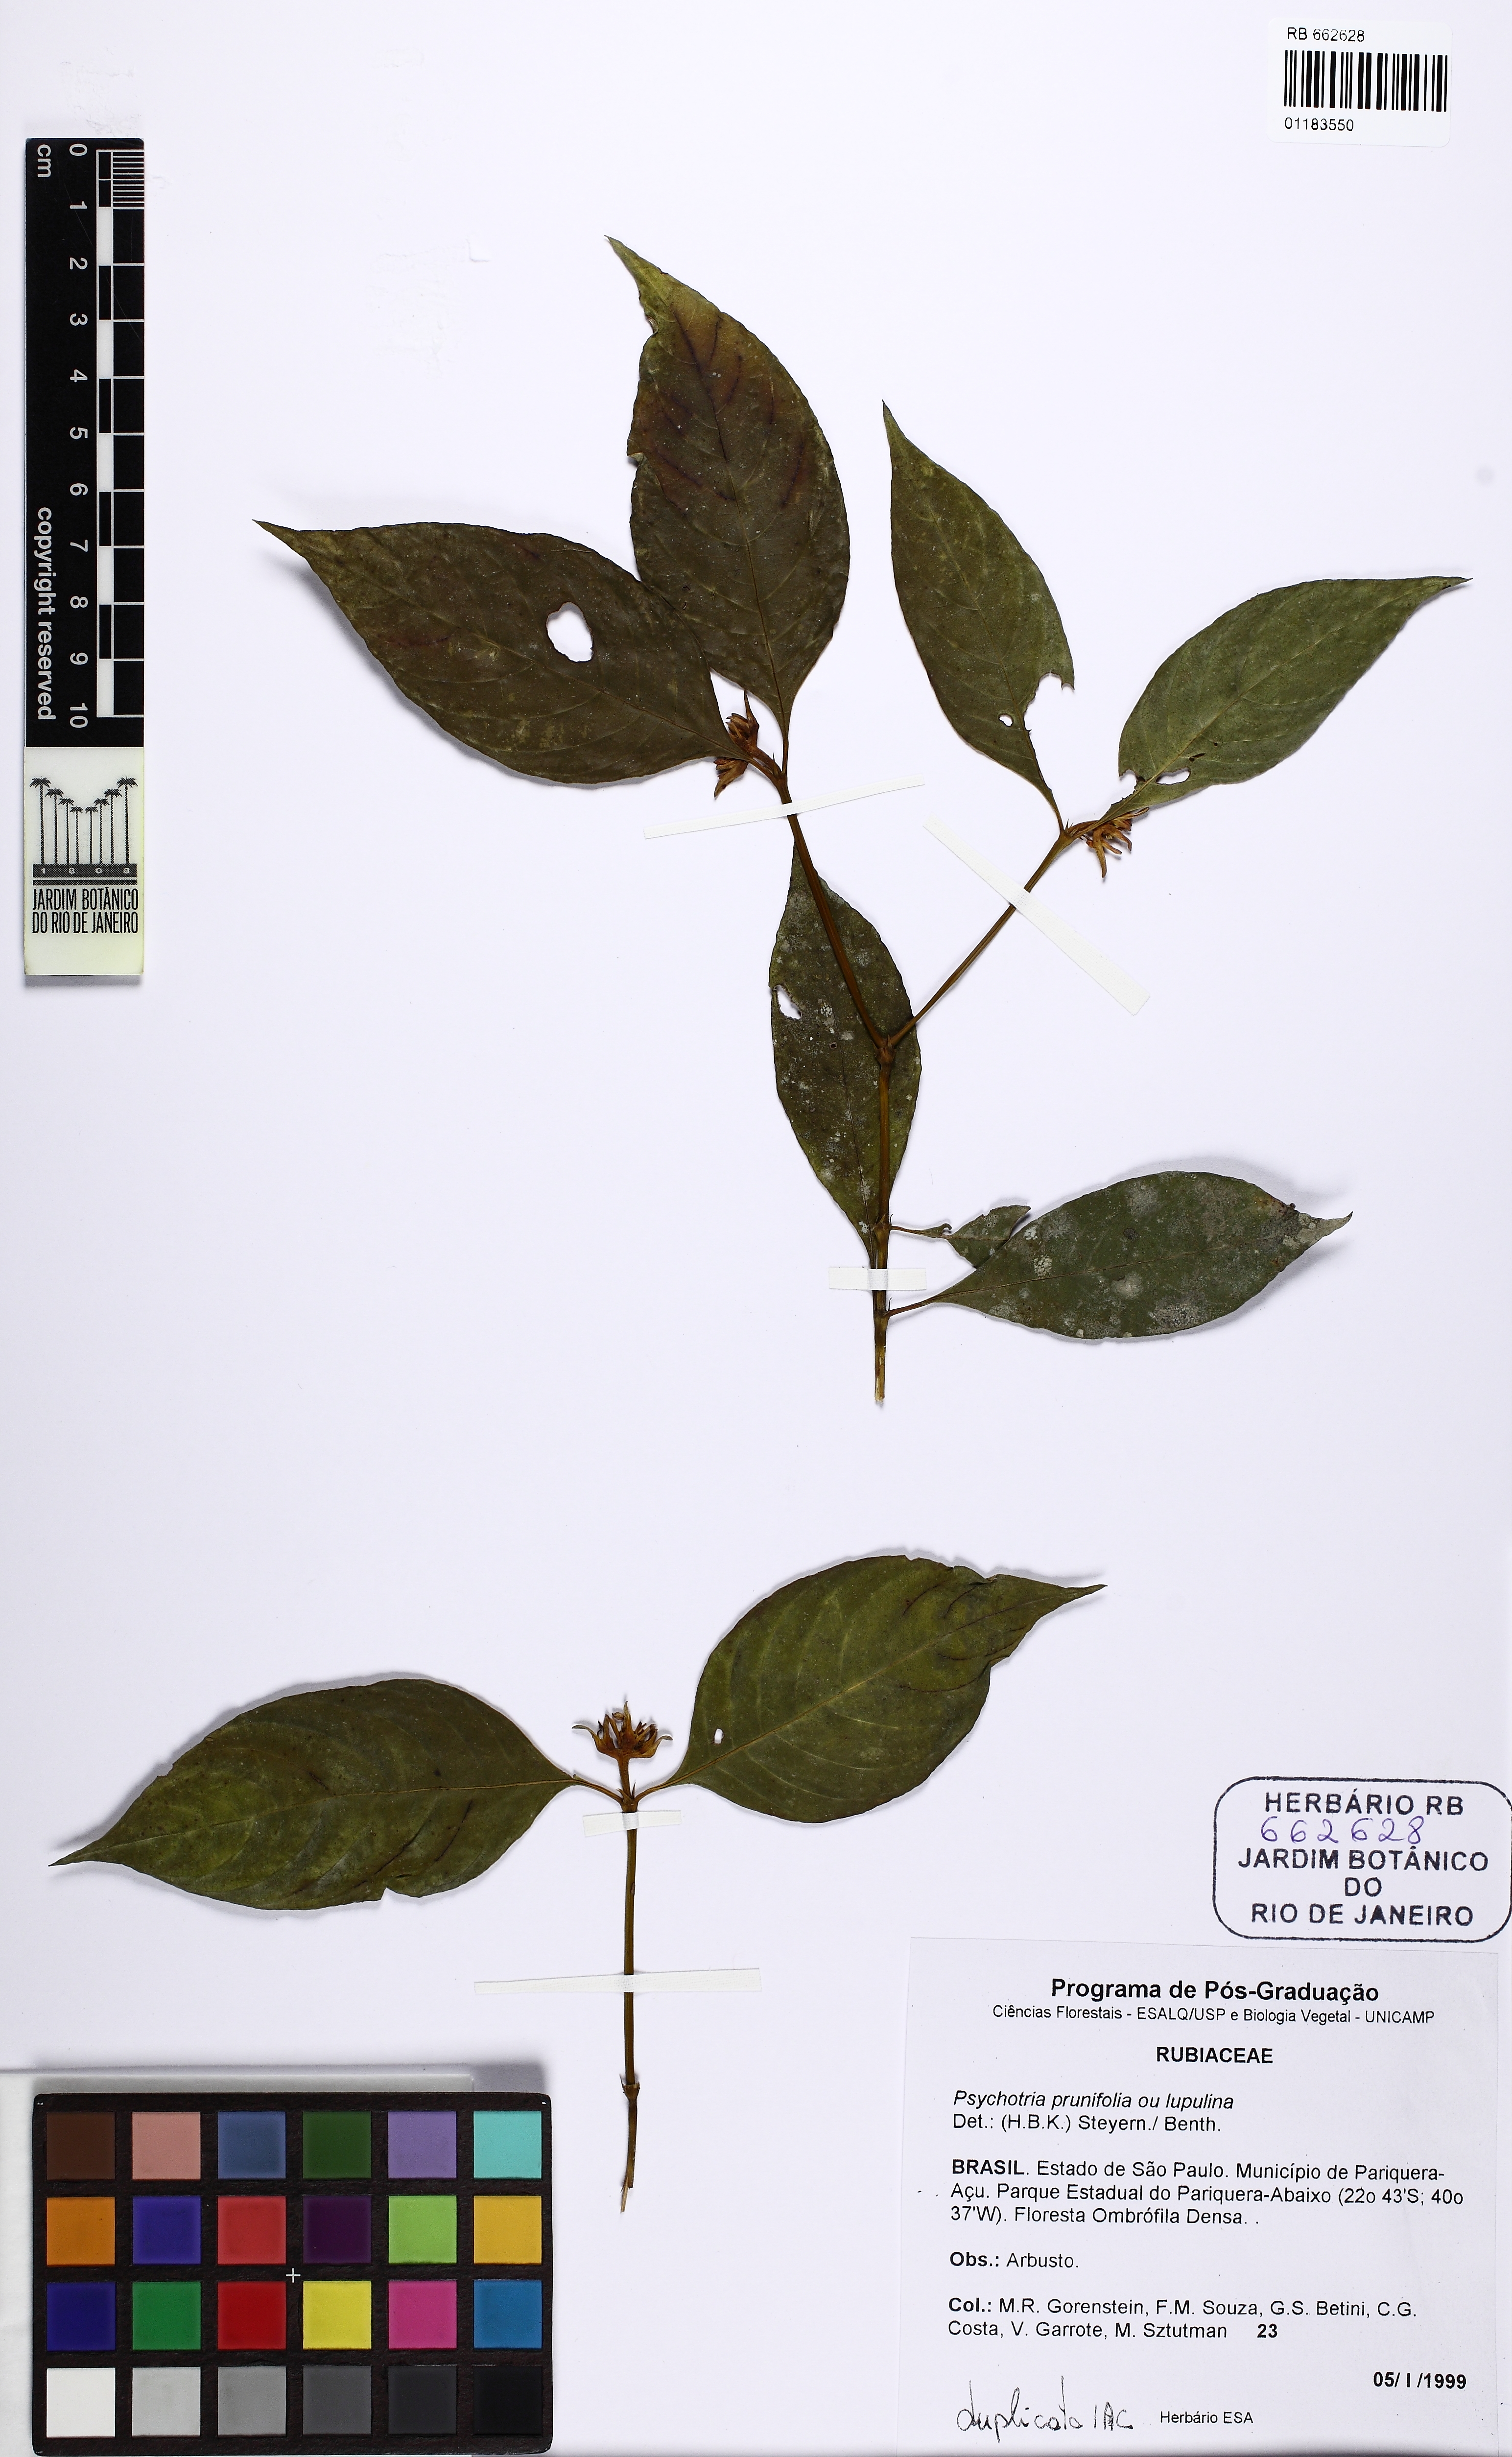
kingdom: Plantae
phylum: Tracheophyta
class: Magnoliopsida
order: Gentianales
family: Rubiaceae
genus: Palicourea
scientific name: Palicourea prunifolia
